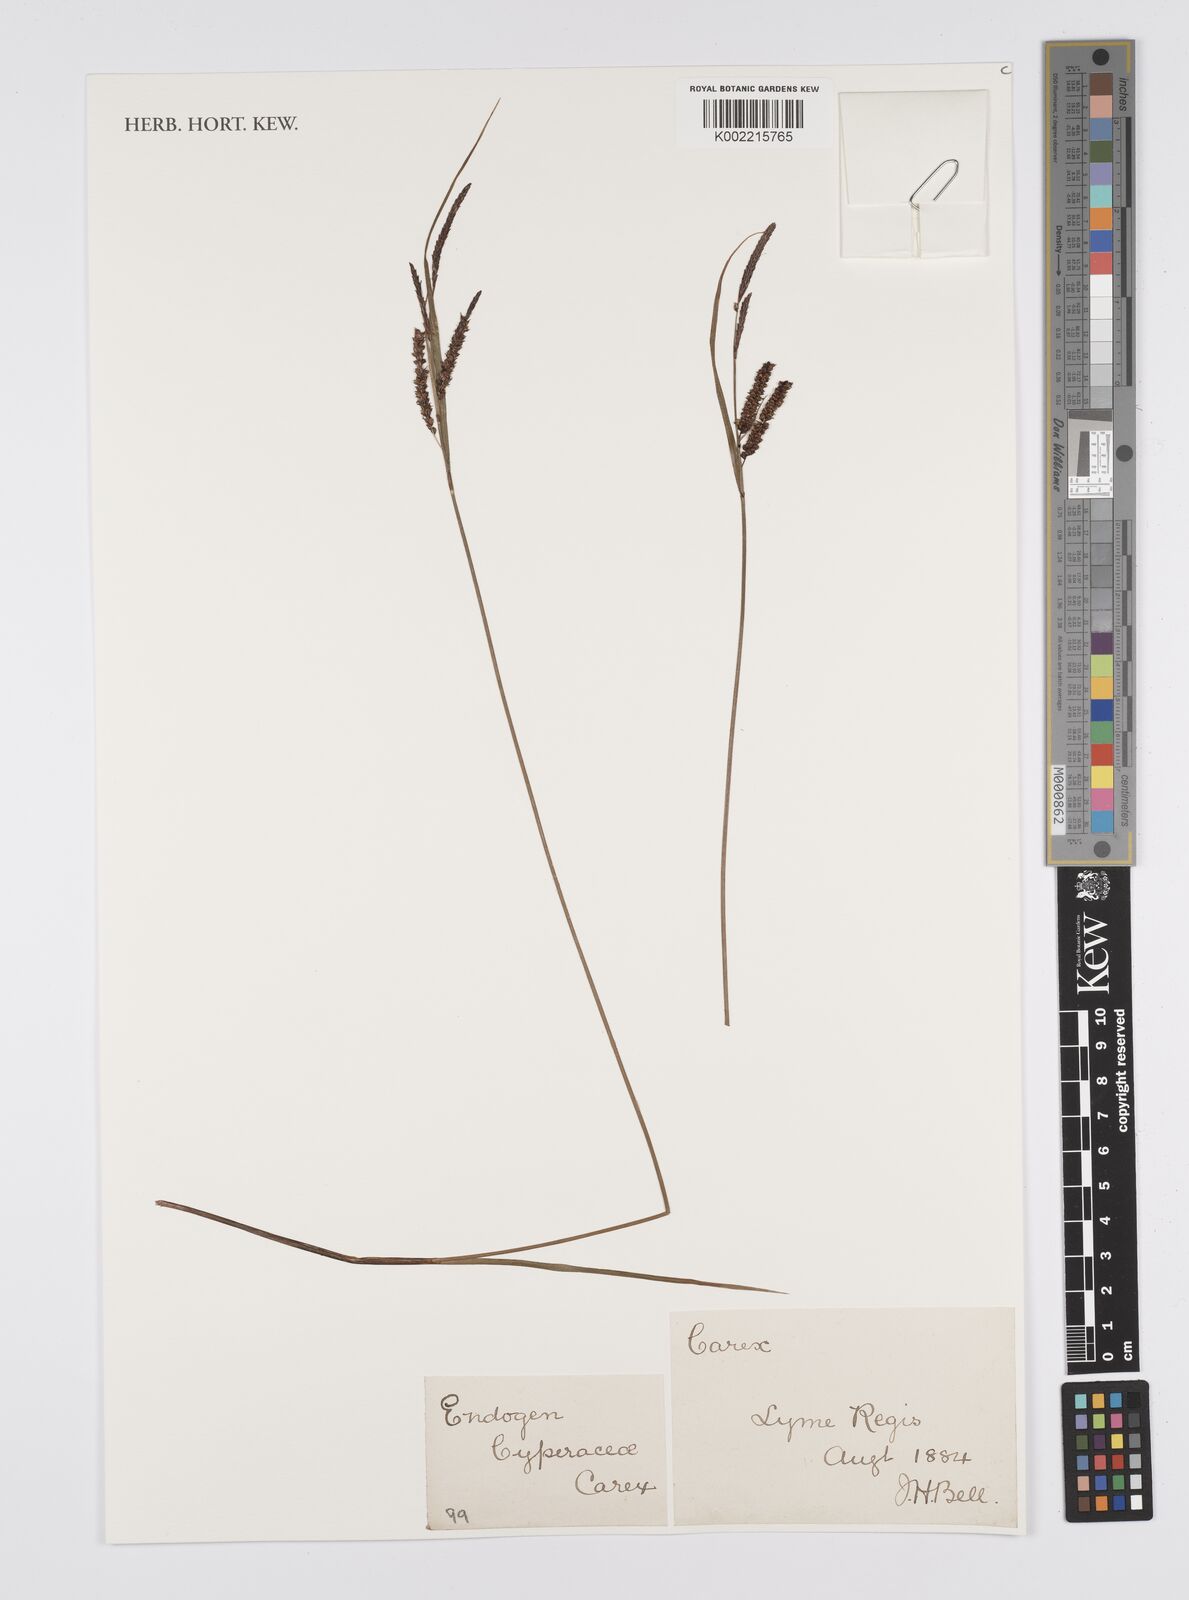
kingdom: Plantae
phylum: Tracheophyta
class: Liliopsida
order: Poales
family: Cyperaceae
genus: Carex
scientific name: Carex
